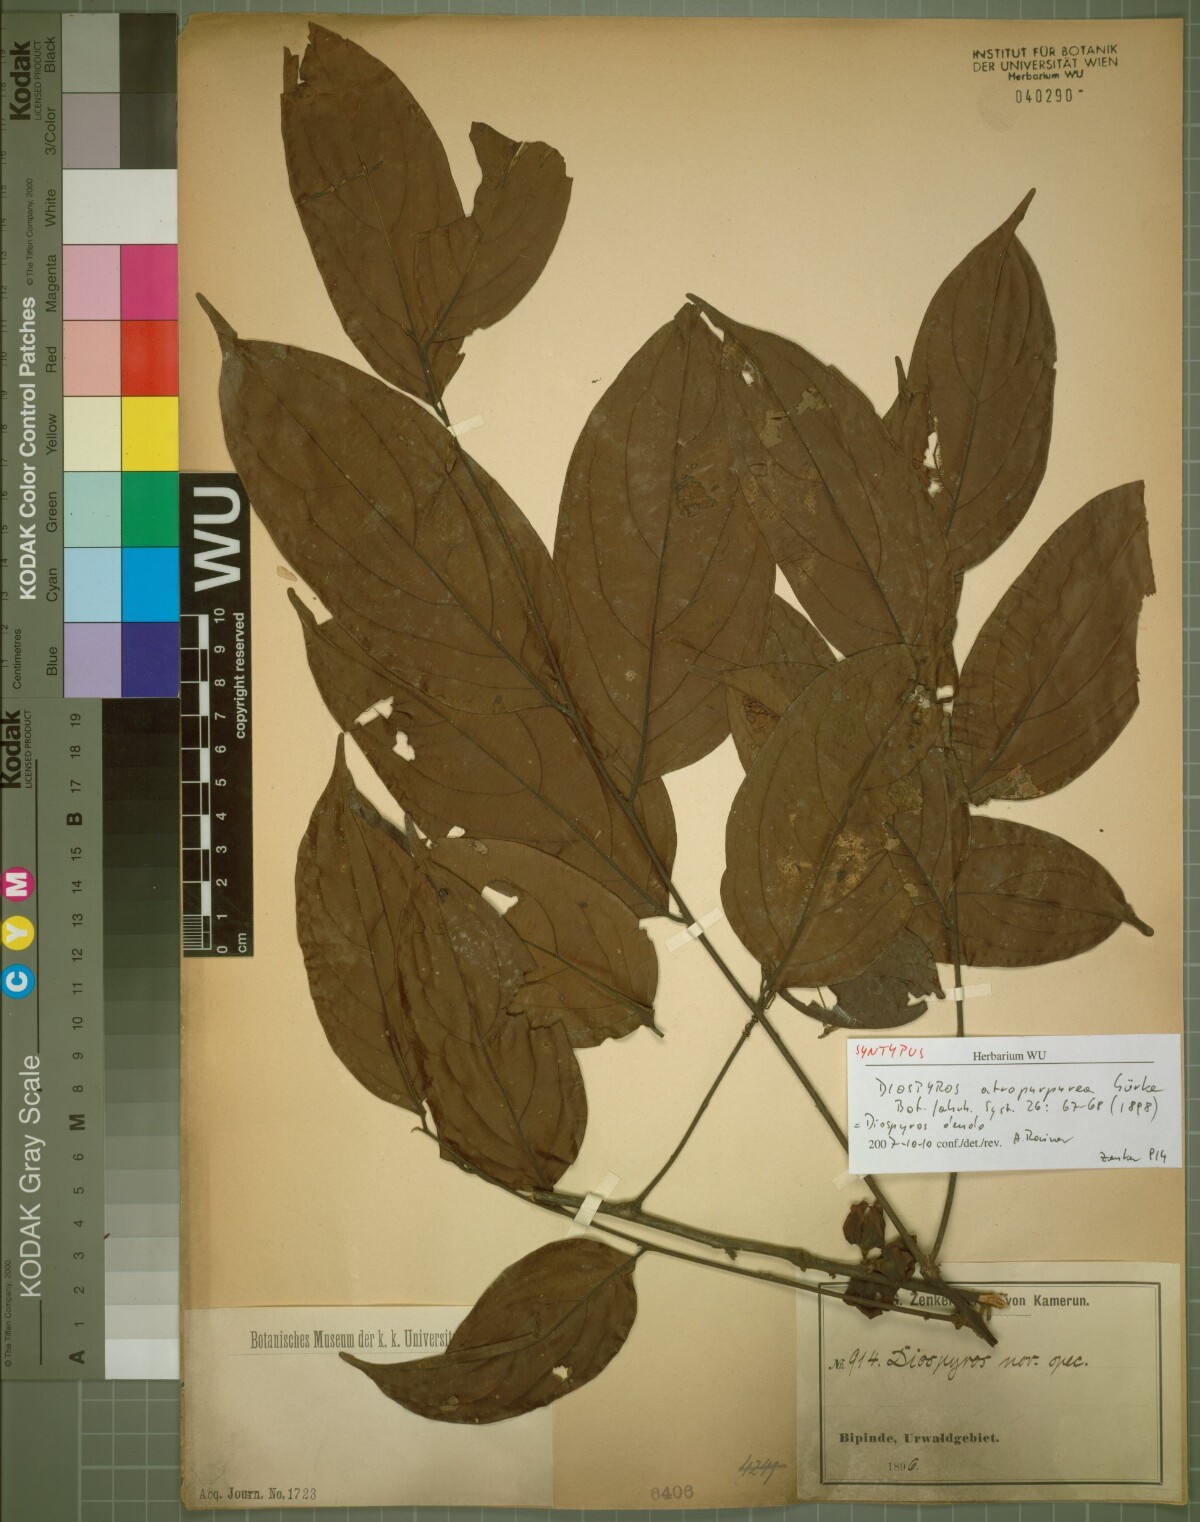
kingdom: Plantae
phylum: Tracheophyta
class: Magnoliopsida
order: Ericales
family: Ebenaceae
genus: Diospyros
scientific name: Diospyros dendo
